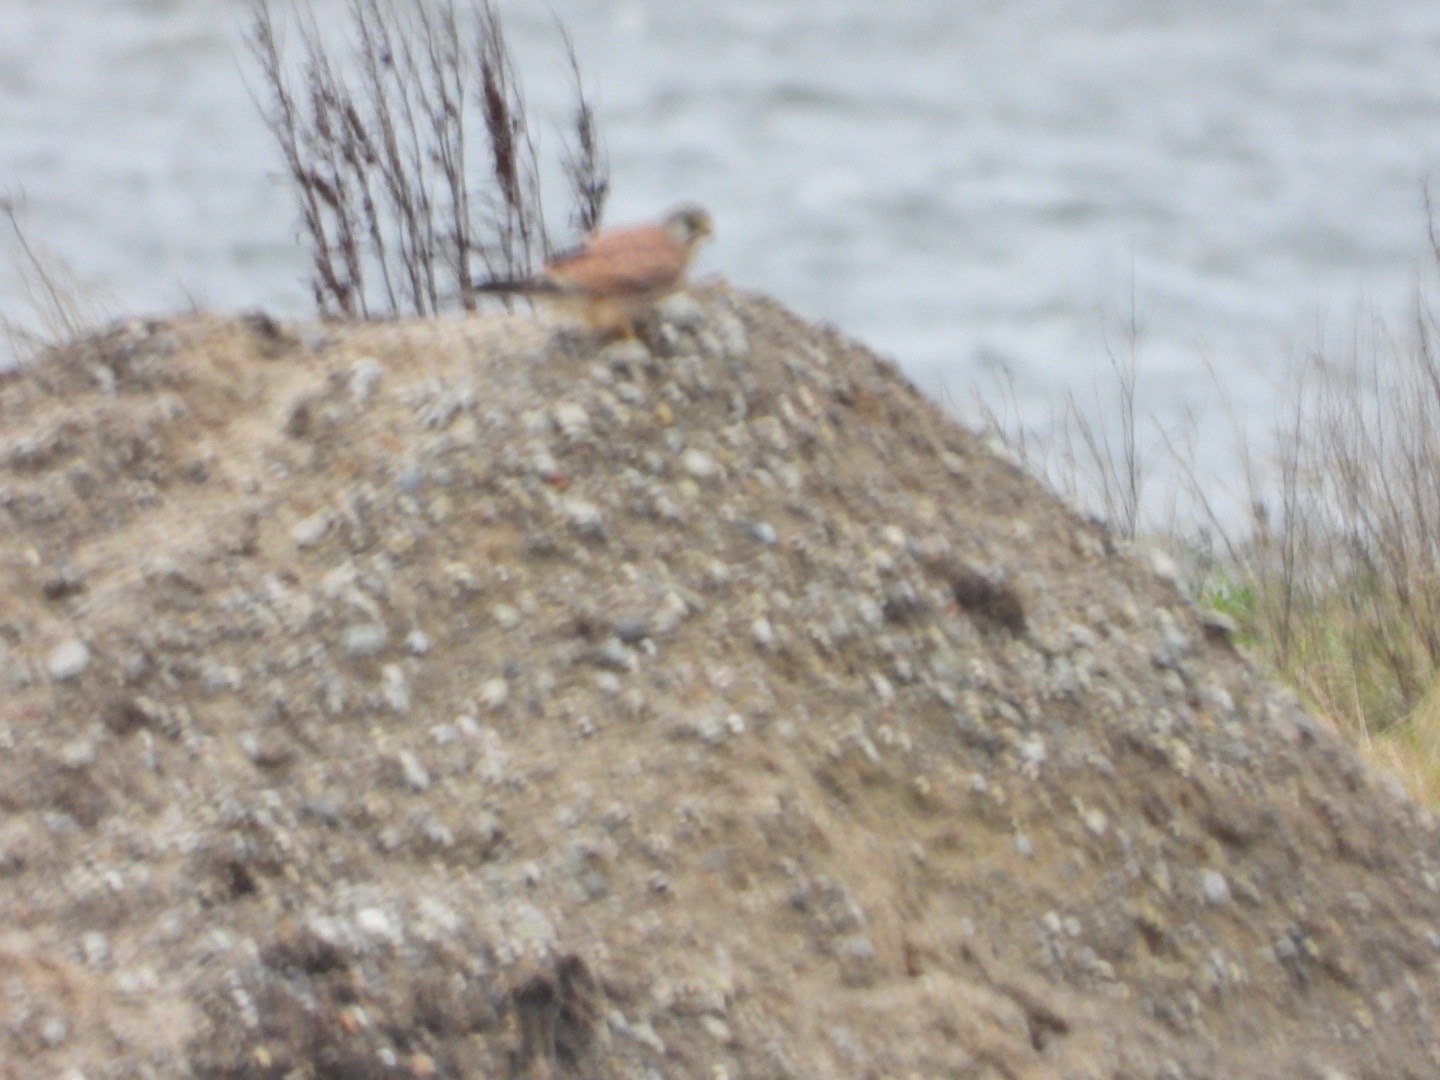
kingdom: Animalia
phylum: Chordata
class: Aves
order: Falconiformes
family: Falconidae
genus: Falco
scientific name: Falco tinnunculus
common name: Tårnfalk
